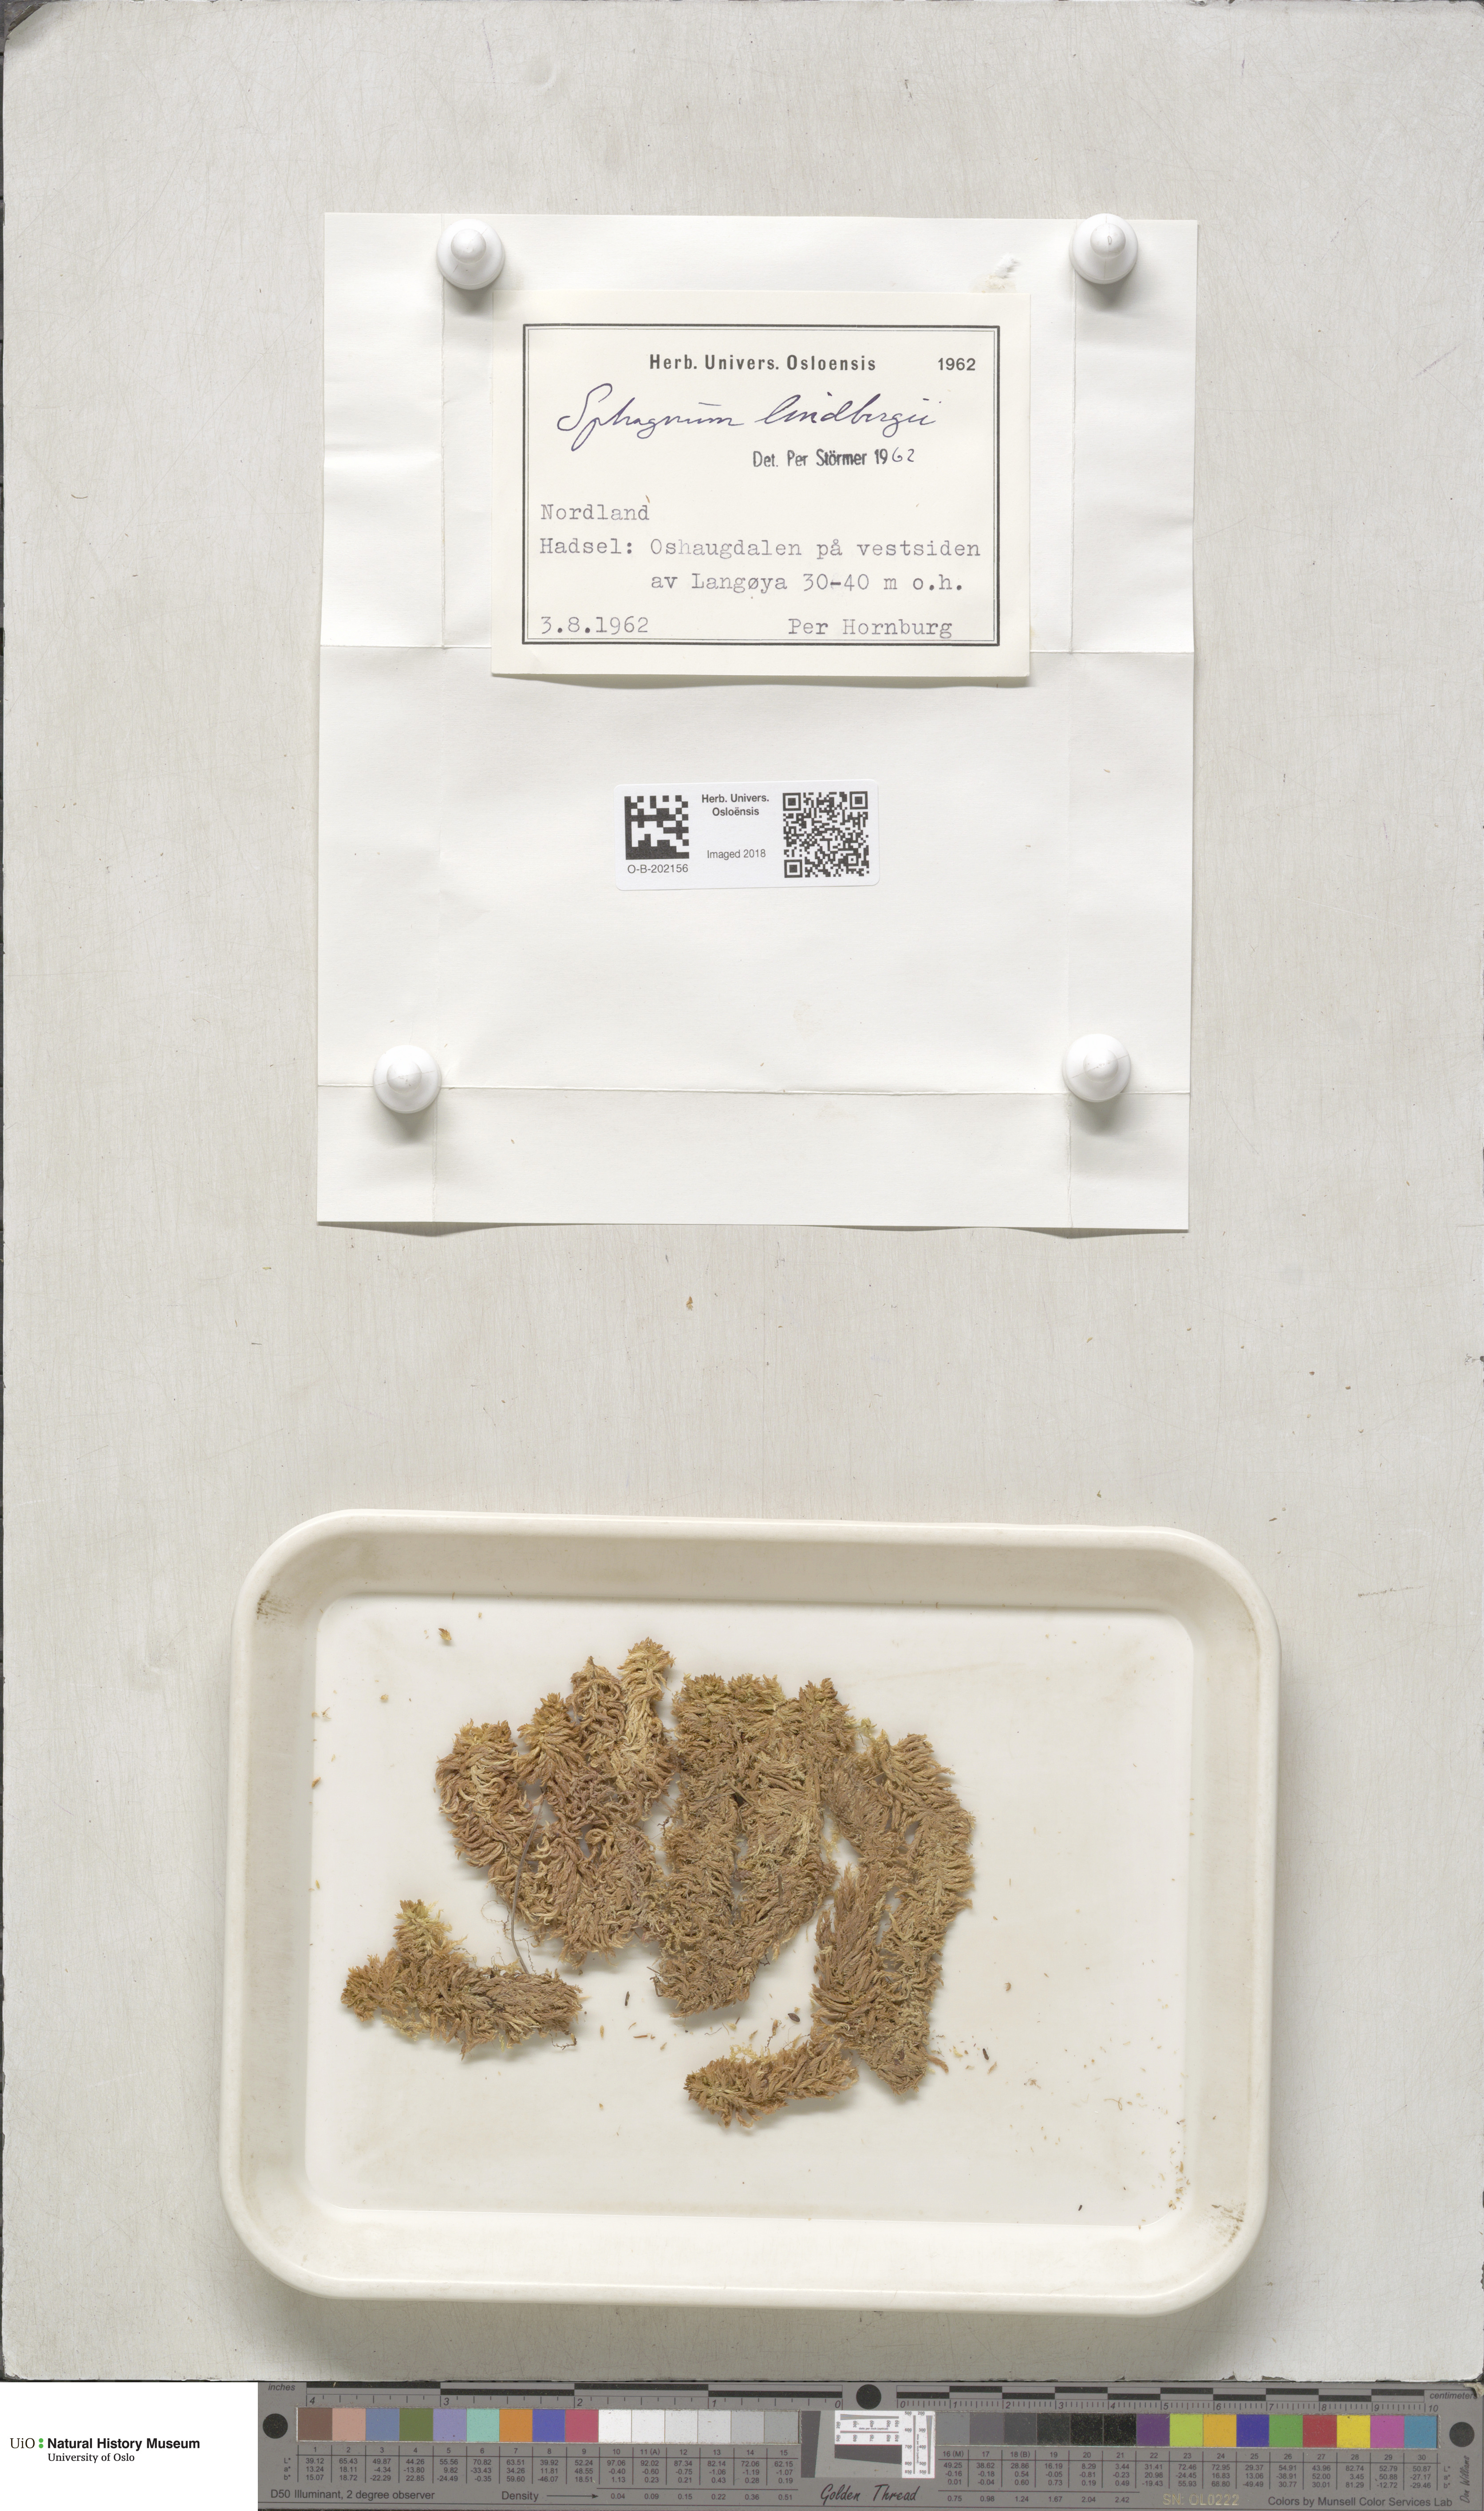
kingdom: Plantae
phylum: Bryophyta
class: Sphagnopsida
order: Sphagnales
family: Sphagnaceae
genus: Sphagnum
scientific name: Sphagnum lindbergii
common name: Lindberg's peat moss
